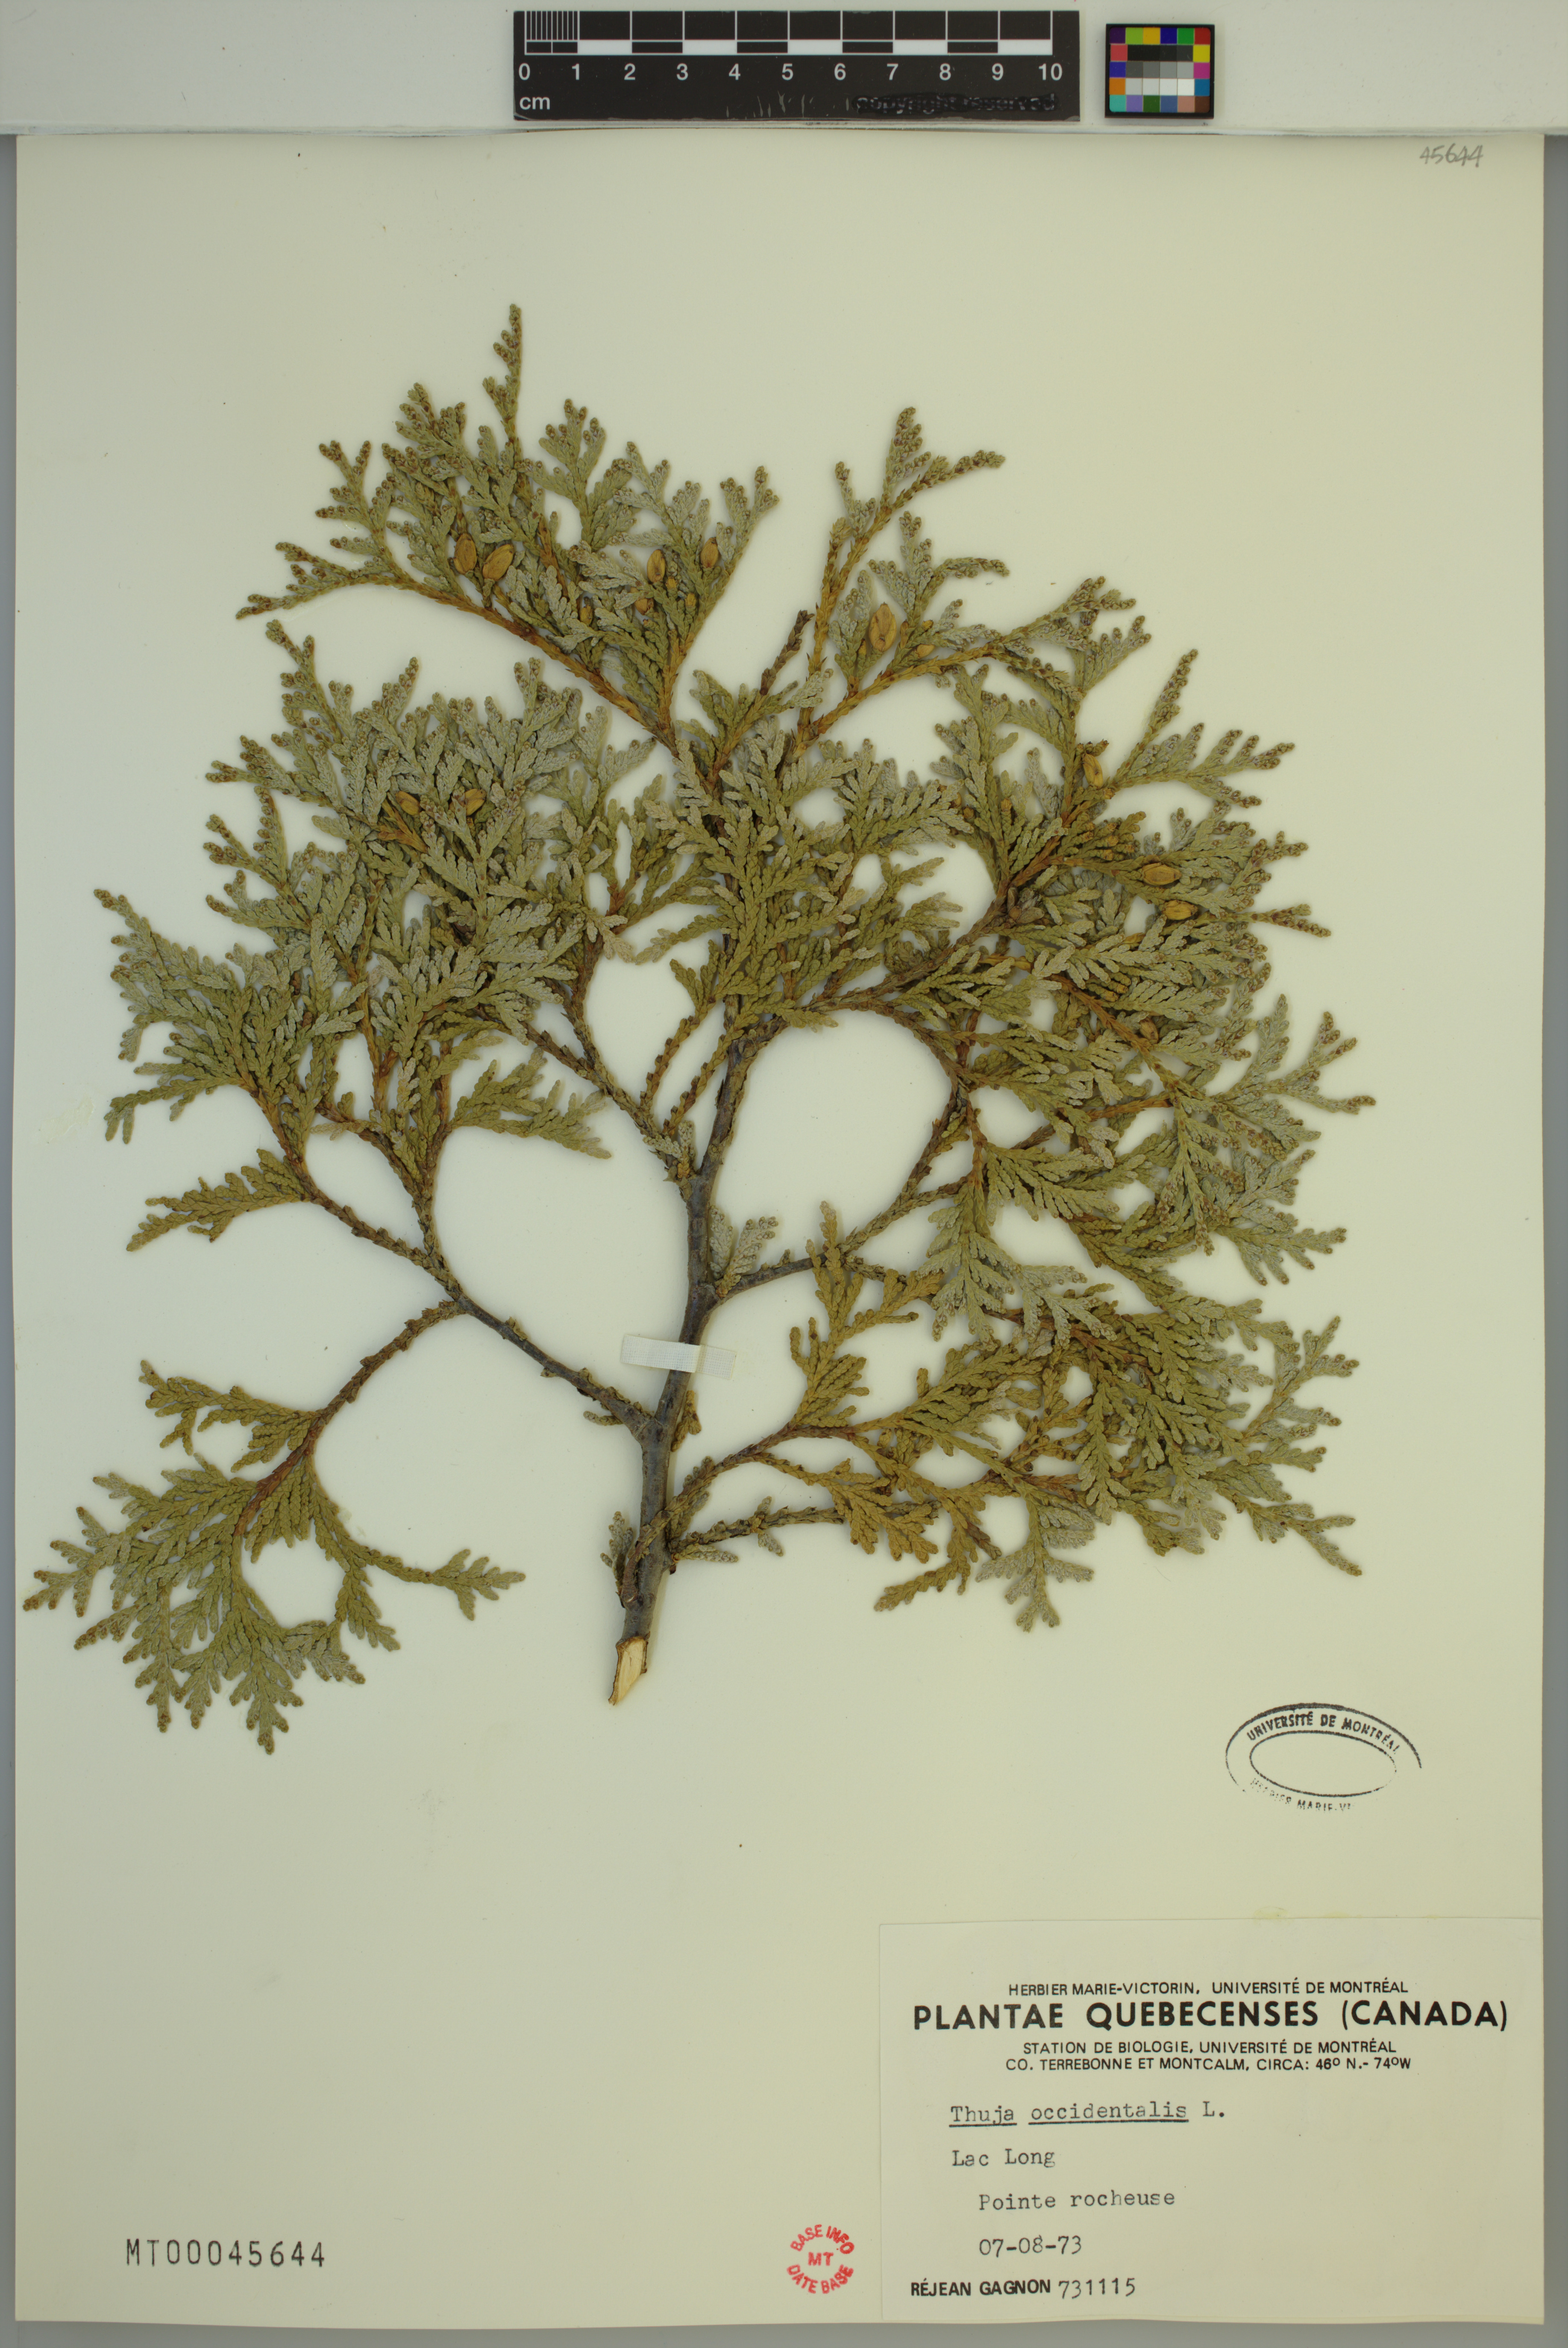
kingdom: Plantae
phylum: Tracheophyta
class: Pinopsida
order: Pinales
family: Cupressaceae
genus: Thuja
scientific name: Thuja occidentalis
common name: Northern white-cedar
